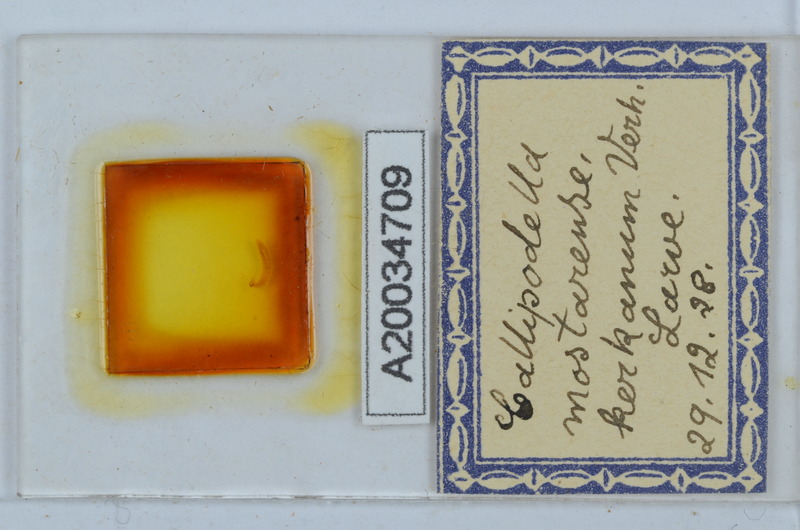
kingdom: Animalia
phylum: Arthropoda
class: Diplopoda
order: Callipodida
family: Schizopetalidae
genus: Callipodella
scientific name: Callipodella mostarensis
